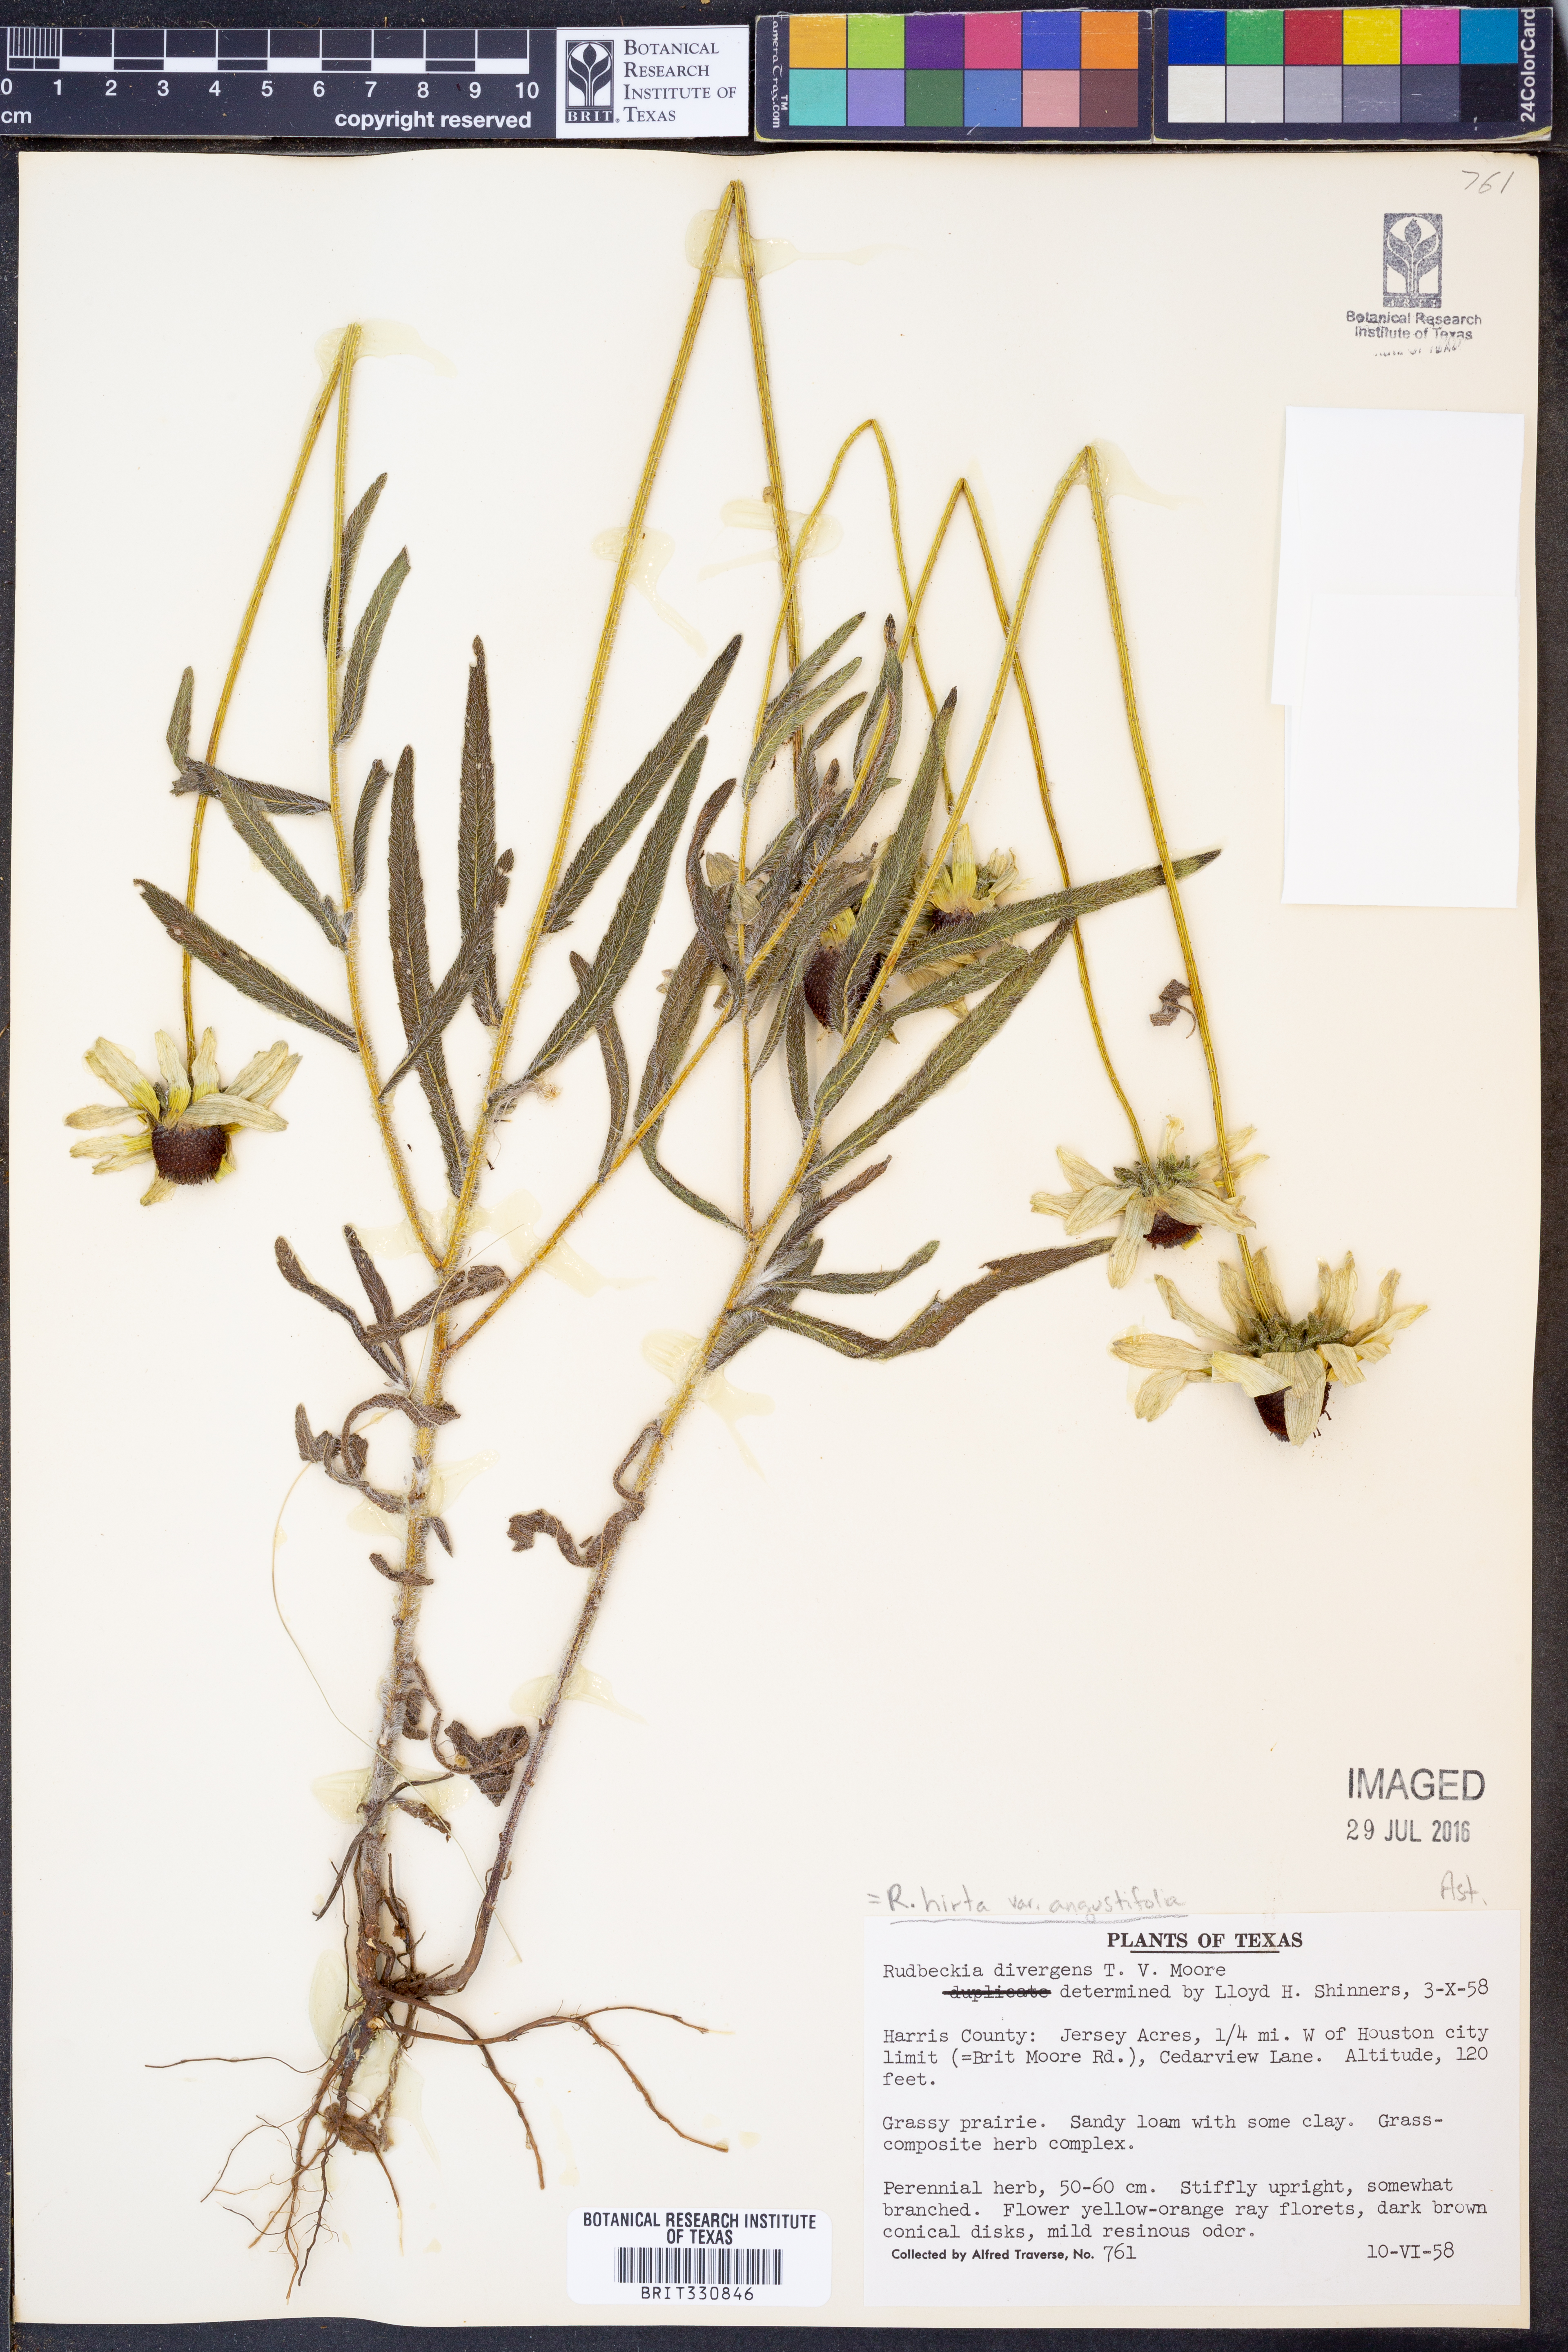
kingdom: Plantae
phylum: Tracheophyta
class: Magnoliopsida
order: Asterales
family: Asteraceae
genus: Rudbeckia
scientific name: Rudbeckia hirta
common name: Black-eyed-susan
